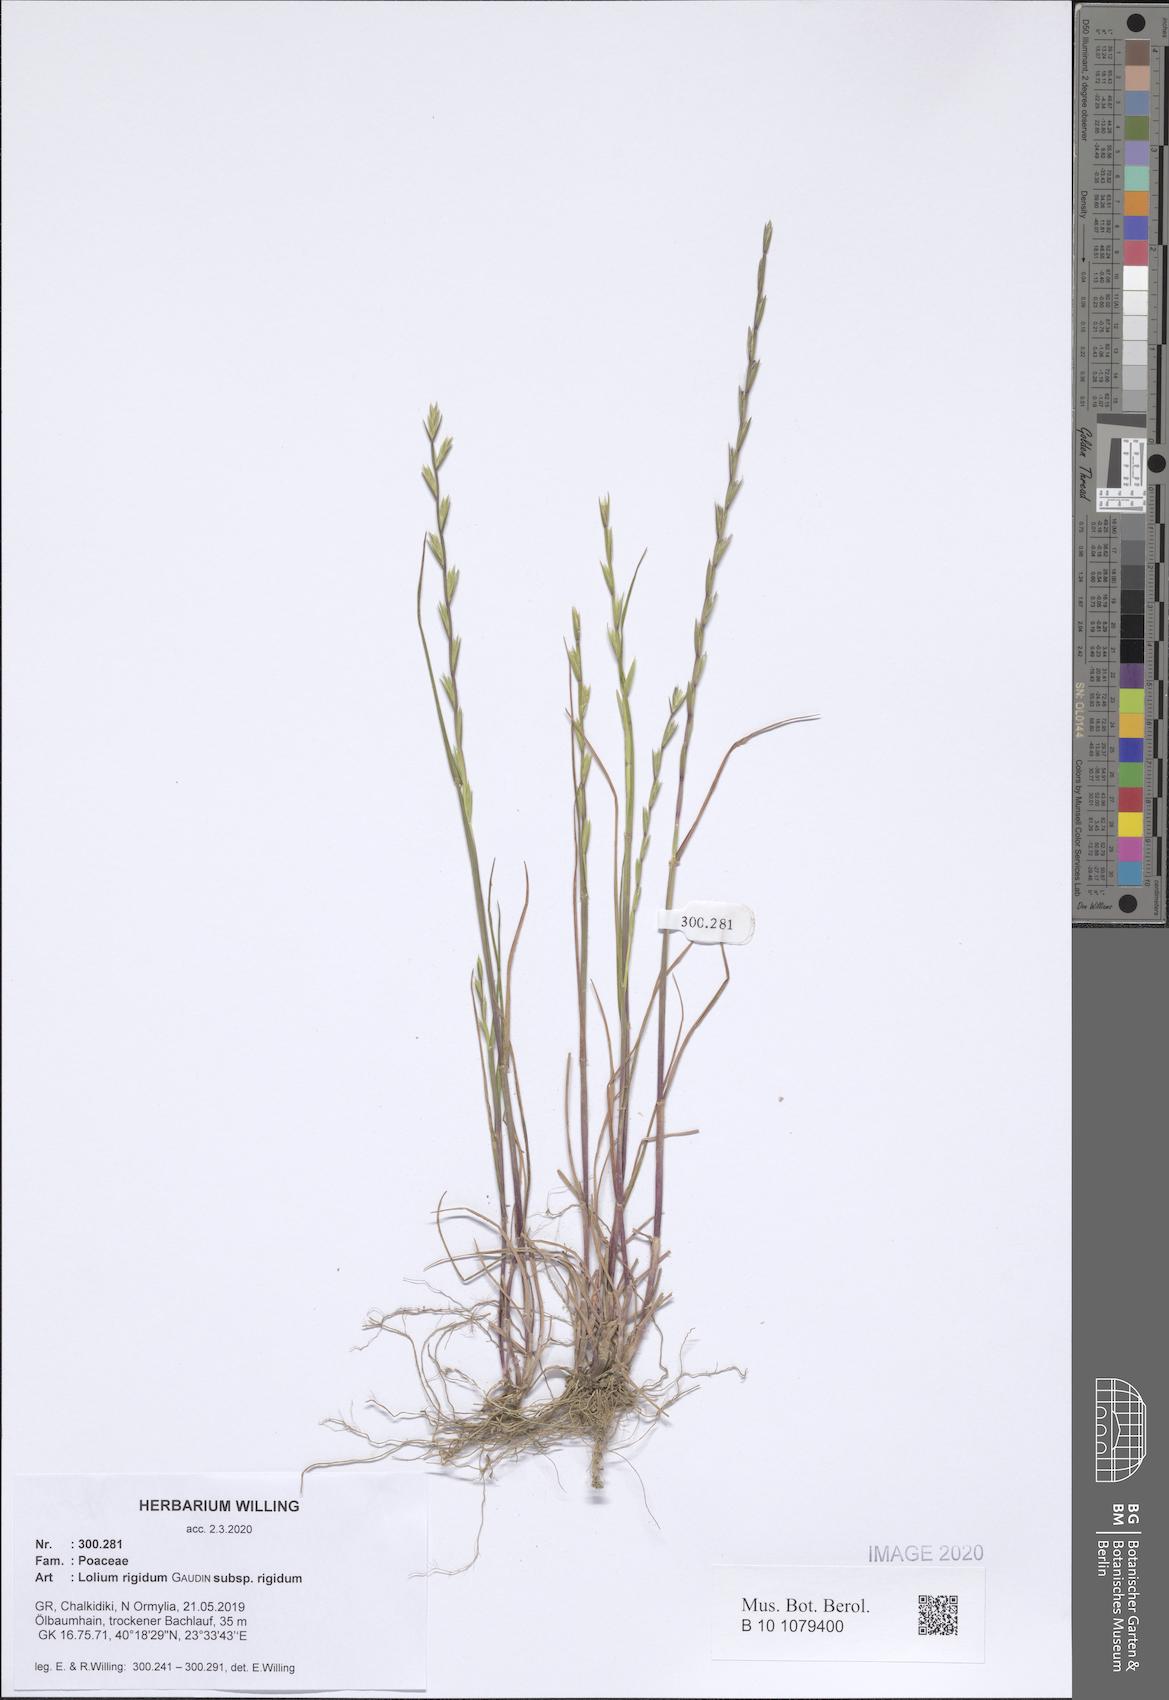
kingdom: Plantae
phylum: Tracheophyta
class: Liliopsida
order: Poales
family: Poaceae
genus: Lolium
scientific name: Lolium rigidum
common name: Wimmera ryegrass
